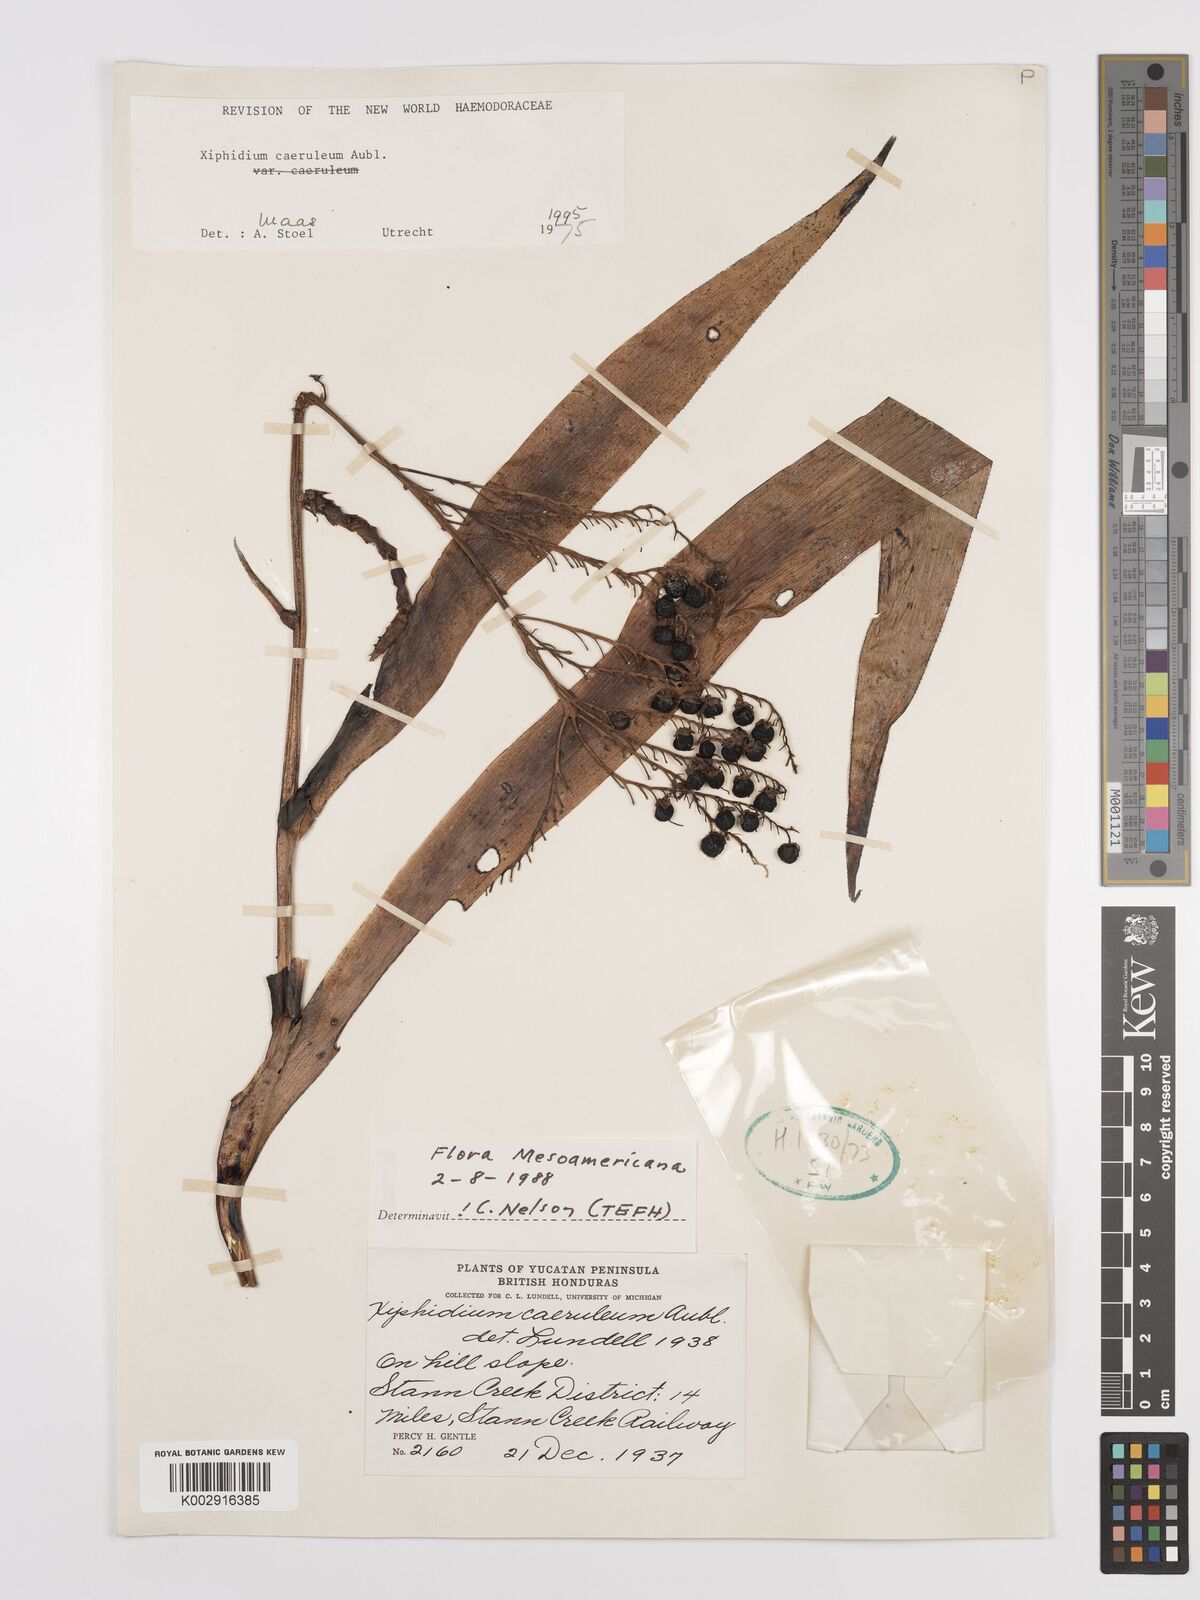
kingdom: Plantae
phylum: Tracheophyta
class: Liliopsida
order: Commelinales
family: Haemodoraceae
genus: Xiphidium
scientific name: Xiphidium caeruleum
